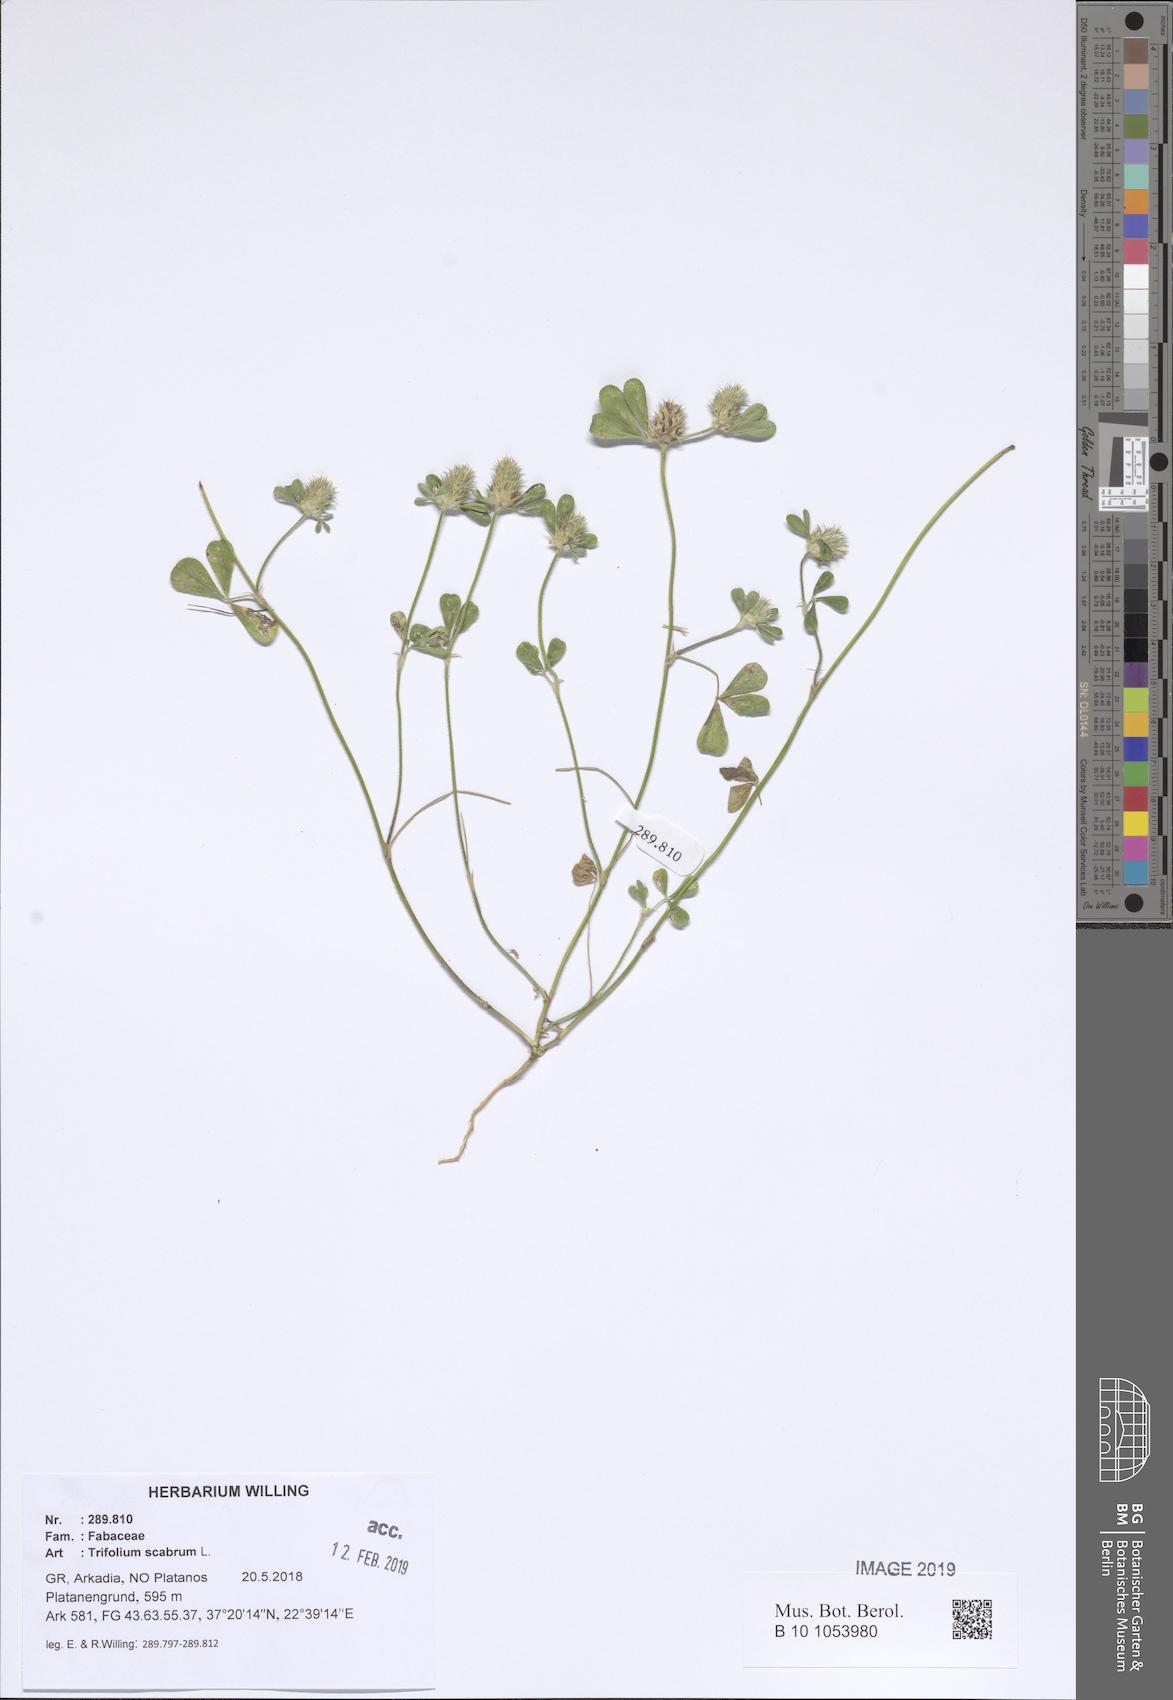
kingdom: Plantae
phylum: Tracheophyta
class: Magnoliopsida
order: Fabales
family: Fabaceae
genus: Trifolium
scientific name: Trifolium scabrum
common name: Rough clover
